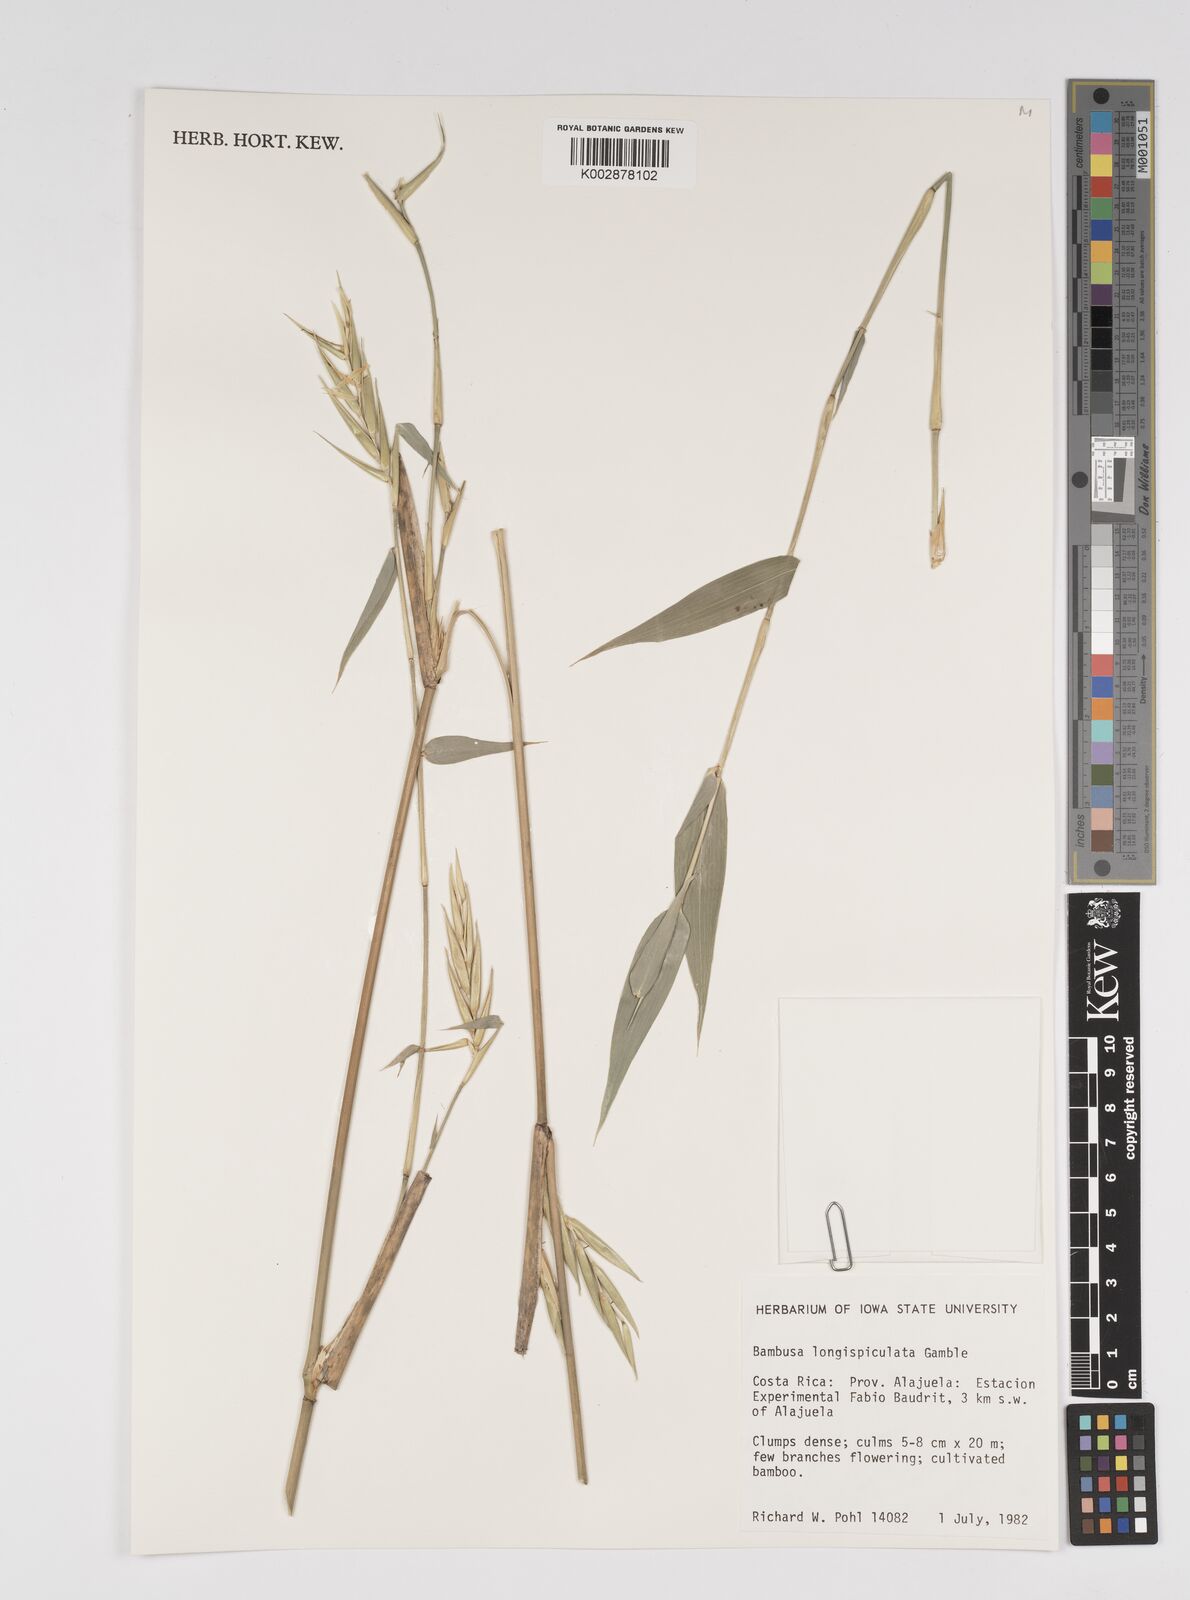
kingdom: Plantae
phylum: Tracheophyta
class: Liliopsida
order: Poales
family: Poaceae
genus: Bambusa
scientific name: Bambusa longispiculata
